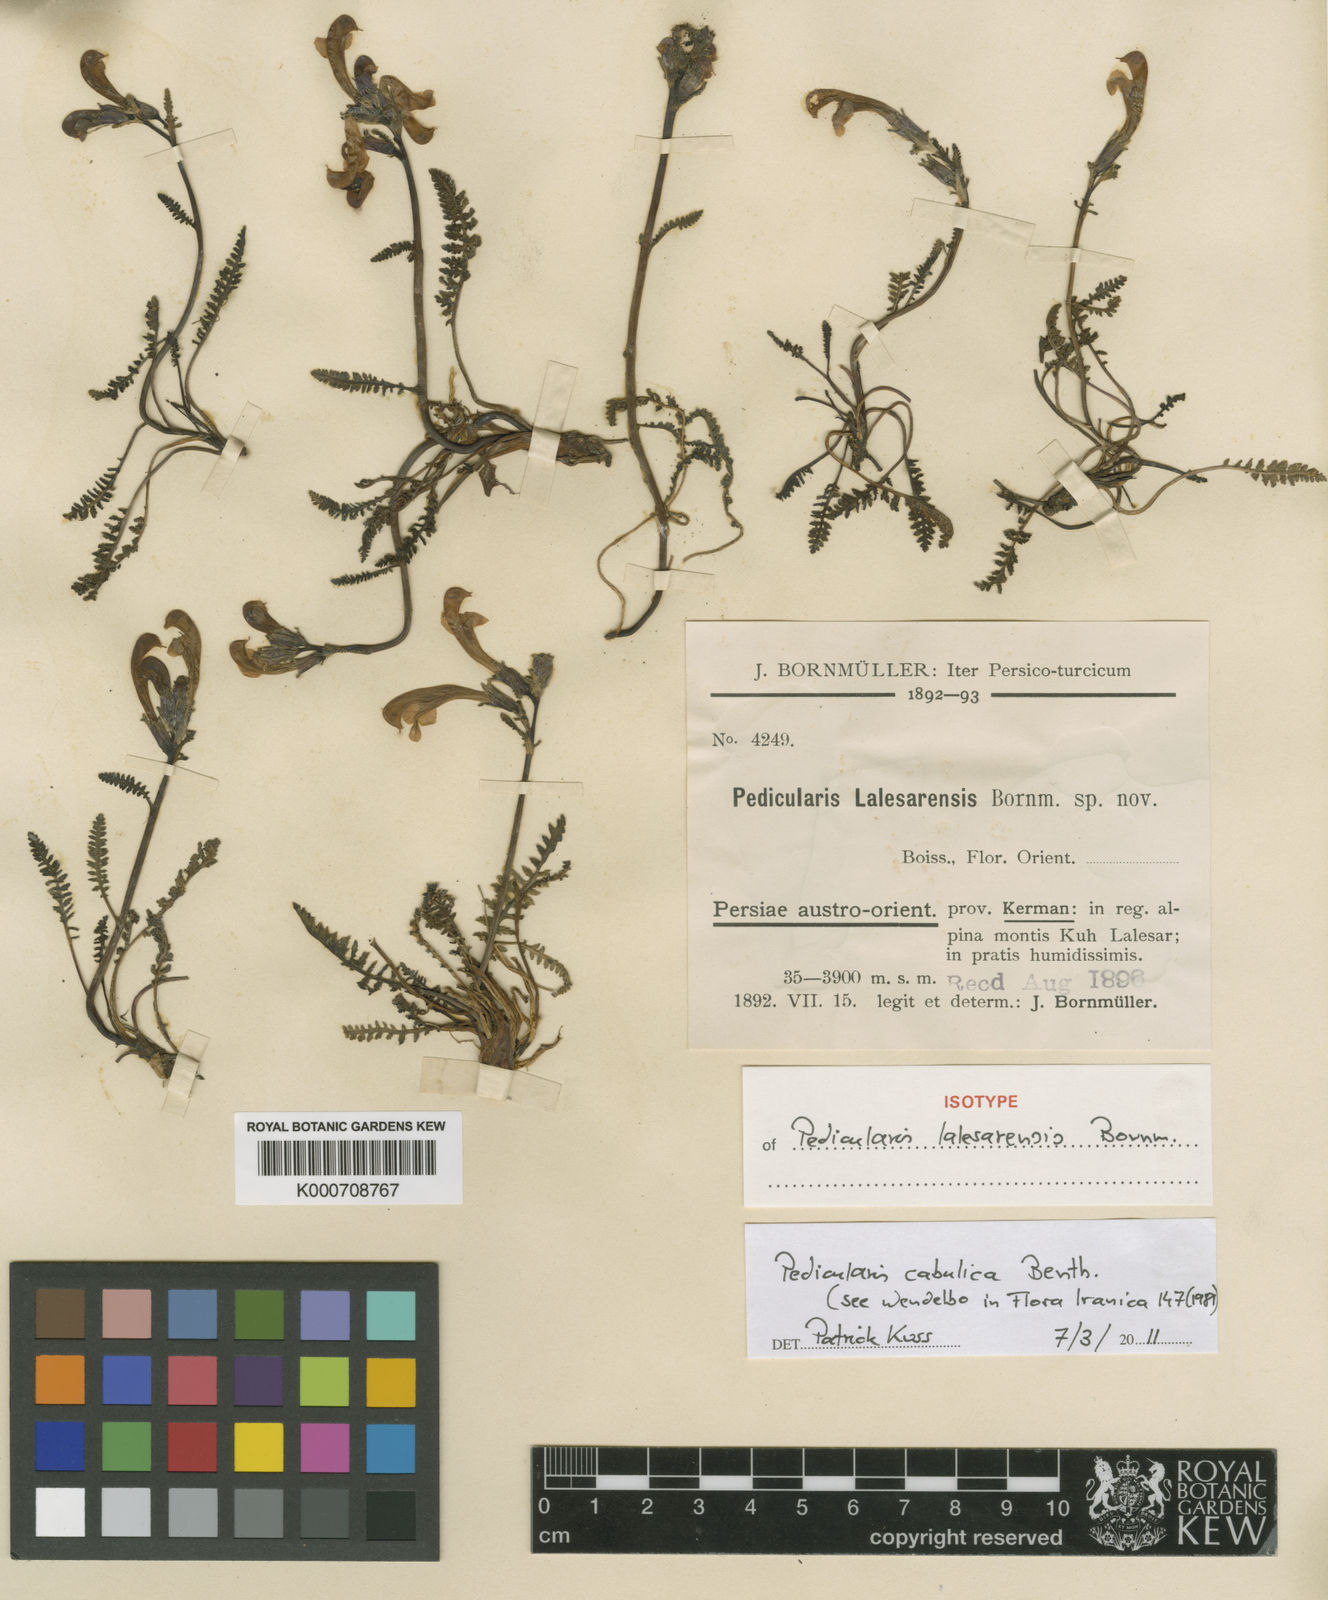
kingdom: Plantae
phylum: Tracheophyta
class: Magnoliopsida
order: Lamiales
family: Orobanchaceae
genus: Pedicularis
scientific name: Pedicularis cabulica
